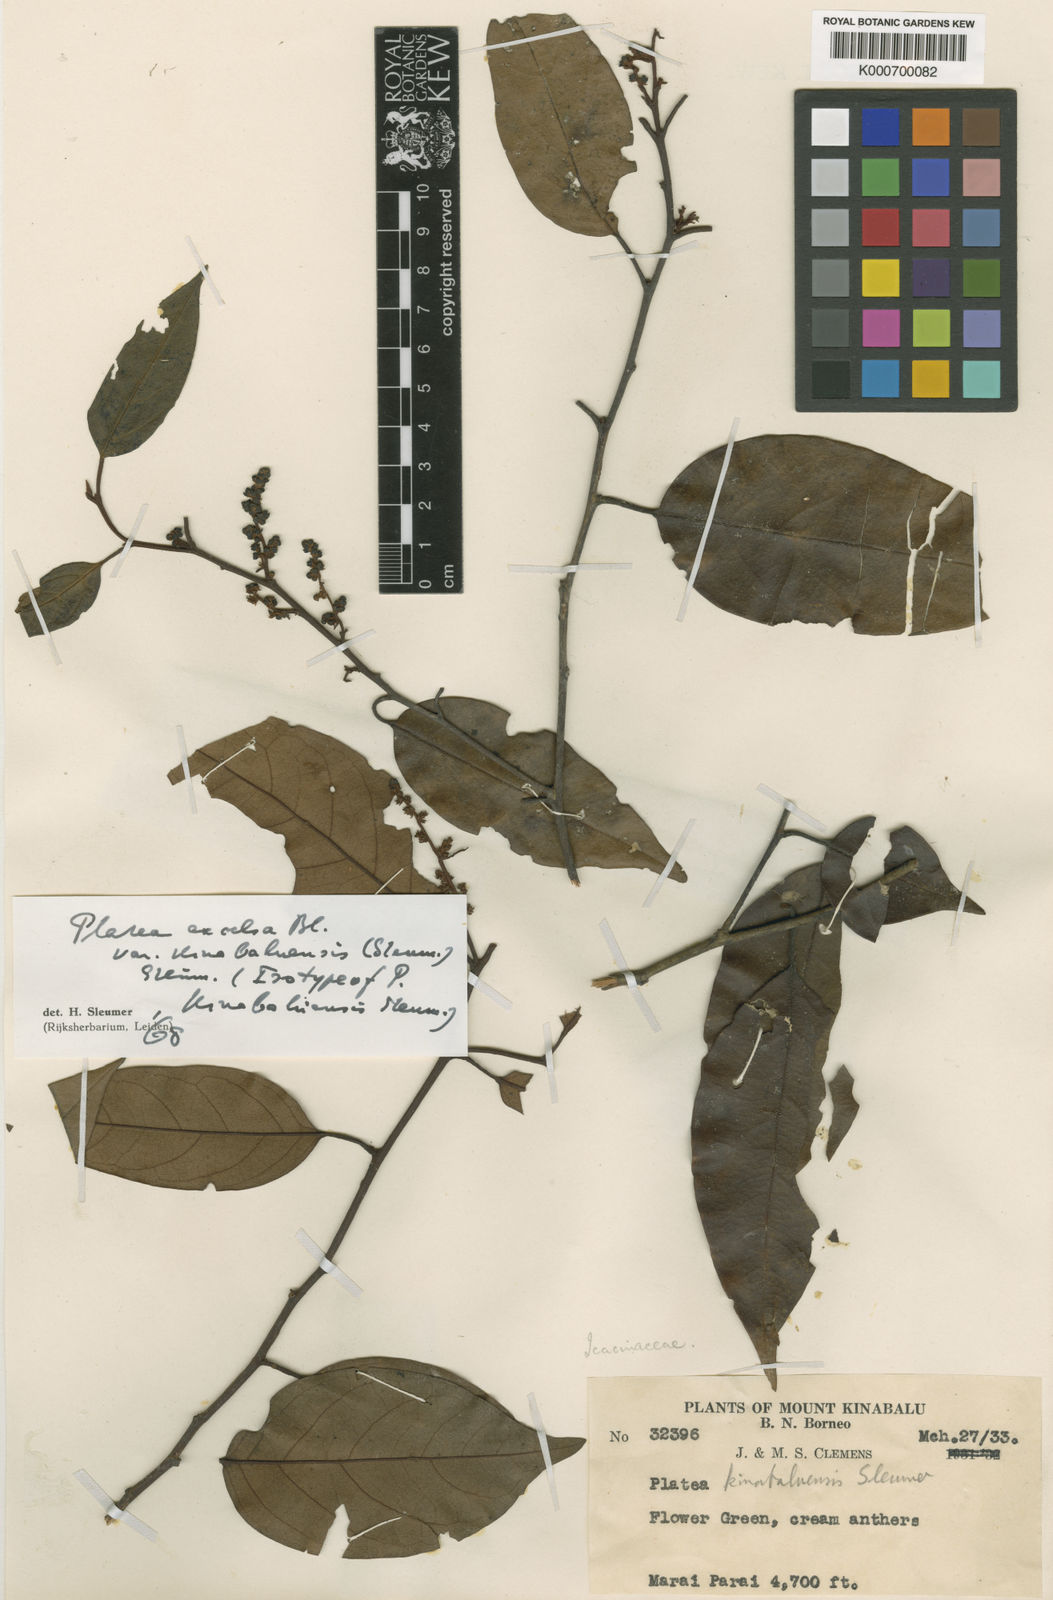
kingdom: Plantae
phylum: Tracheophyta
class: Magnoliopsida
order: Metteniusales
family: Metteniusaceae
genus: Platea
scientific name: Platea excelsa
